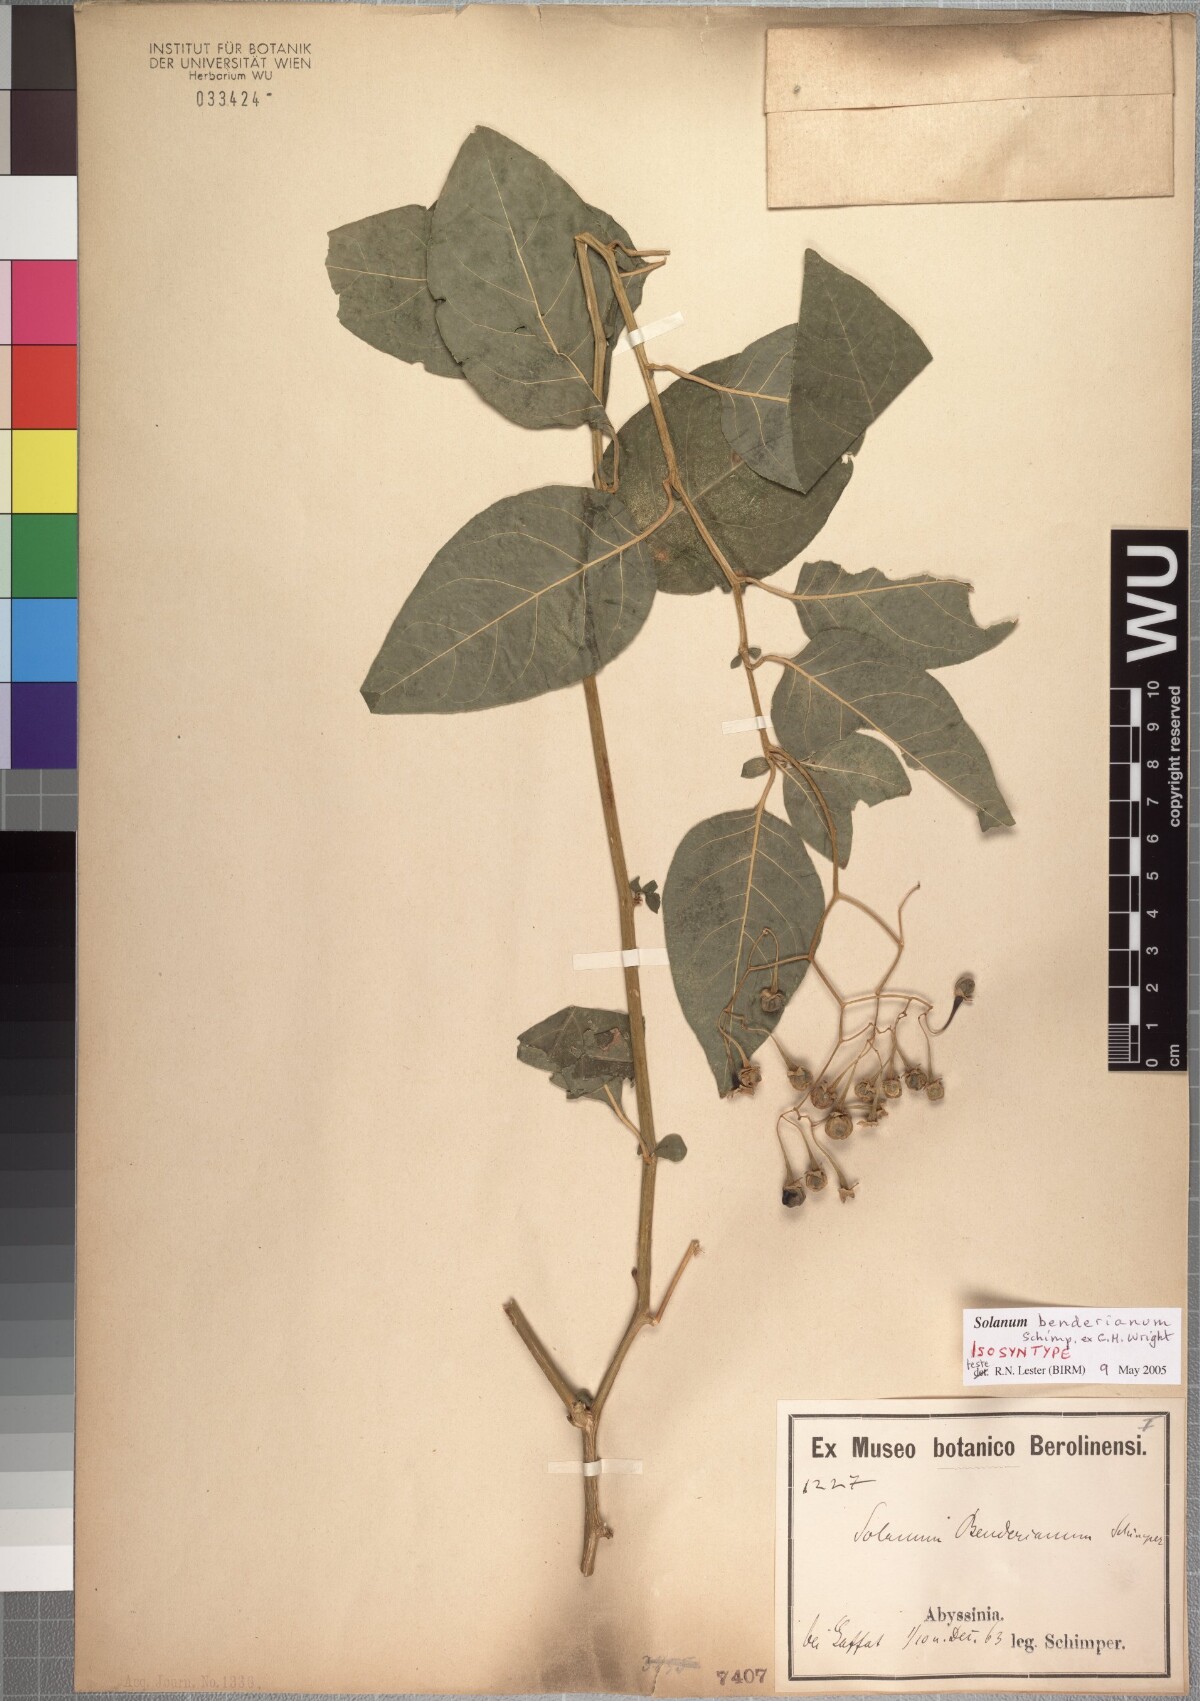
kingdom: Plantae
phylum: Tracheophyta
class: Magnoliopsida
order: Solanales
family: Solanaceae
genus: Solanum
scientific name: Solanum runsoriense
